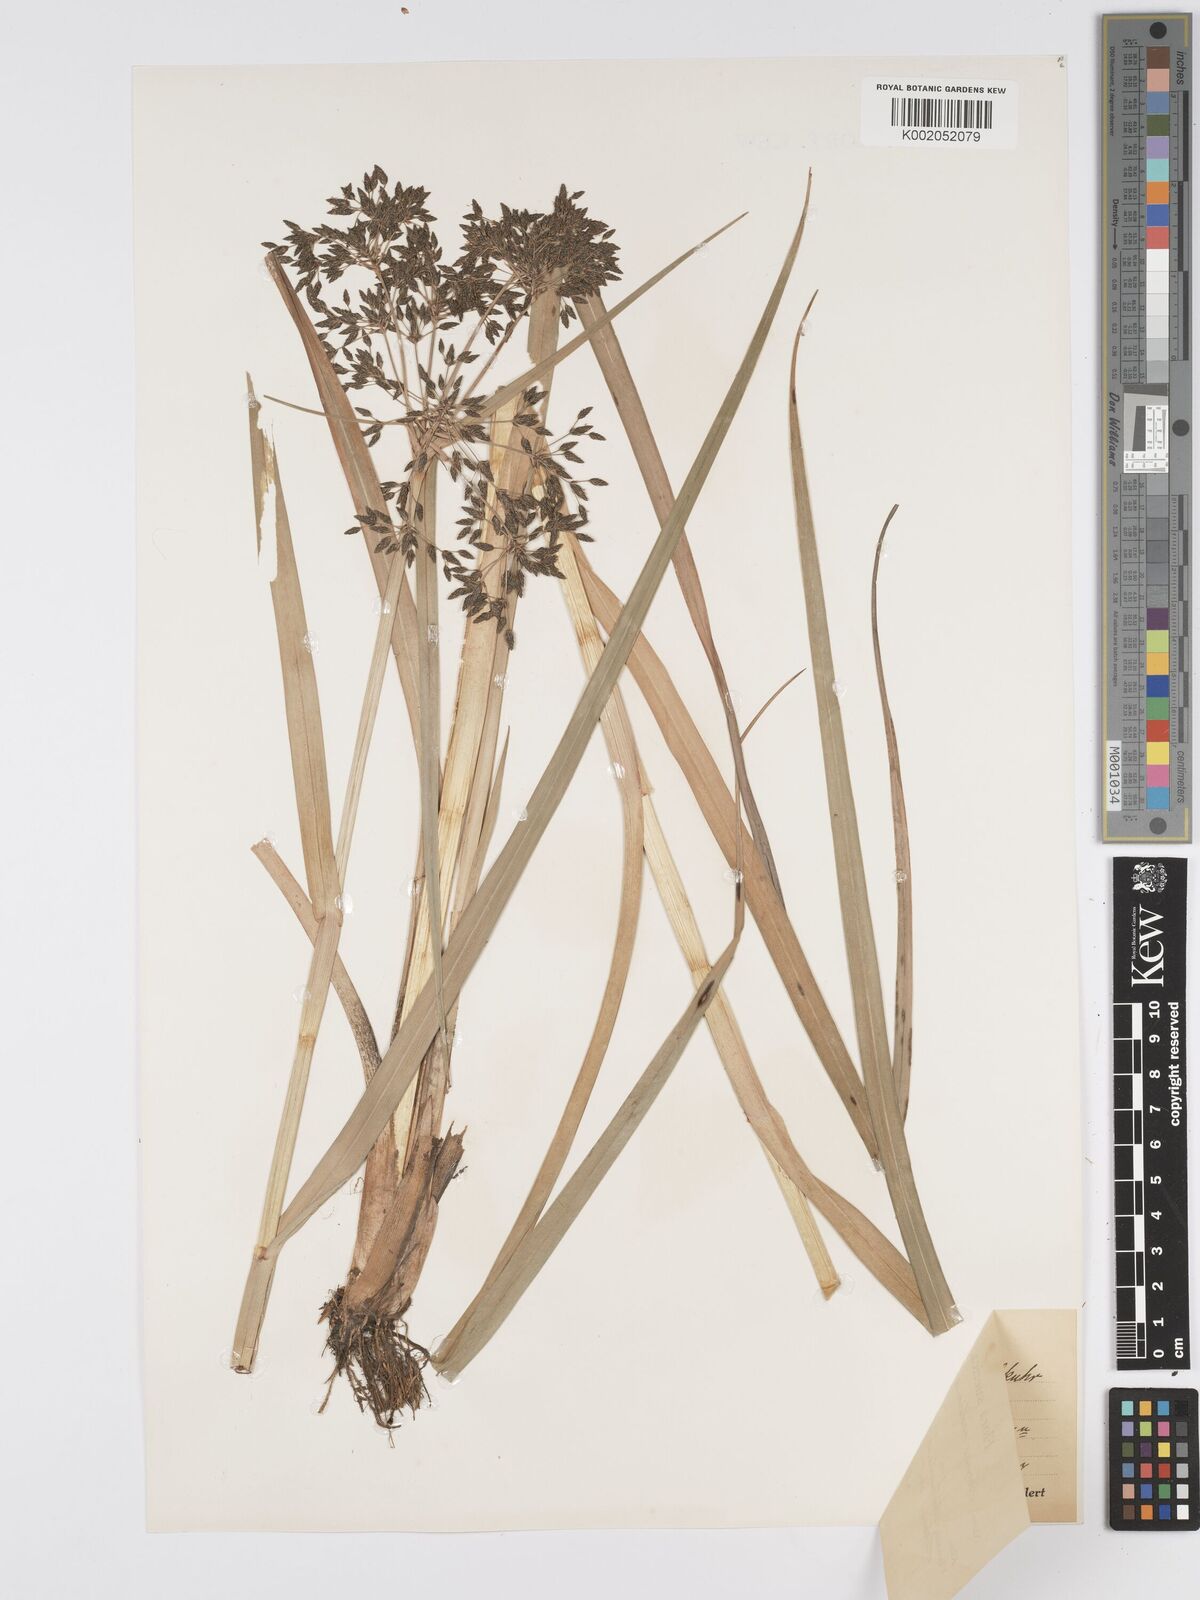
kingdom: Plantae
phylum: Tracheophyta
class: Liliopsida
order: Poales
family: Cyperaceae
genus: Scirpus
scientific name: Scirpus radicans
